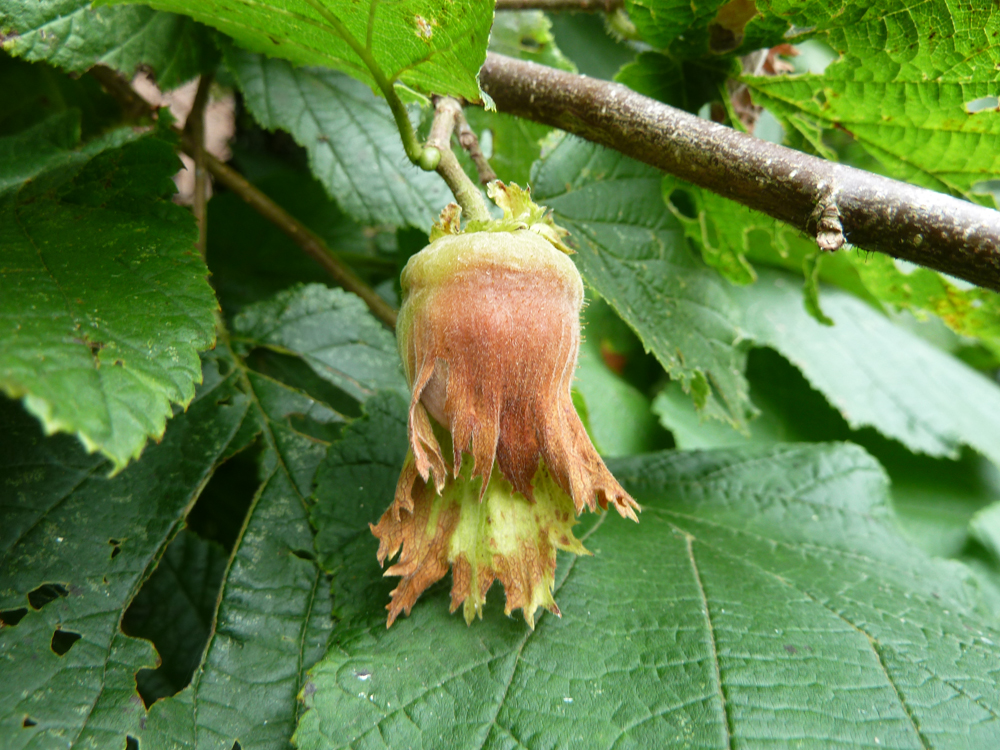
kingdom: Plantae
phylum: Tracheophyta
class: Magnoliopsida
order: Fagales
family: Betulaceae
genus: Corylus
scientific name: Corylus avellana
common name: European hazel
